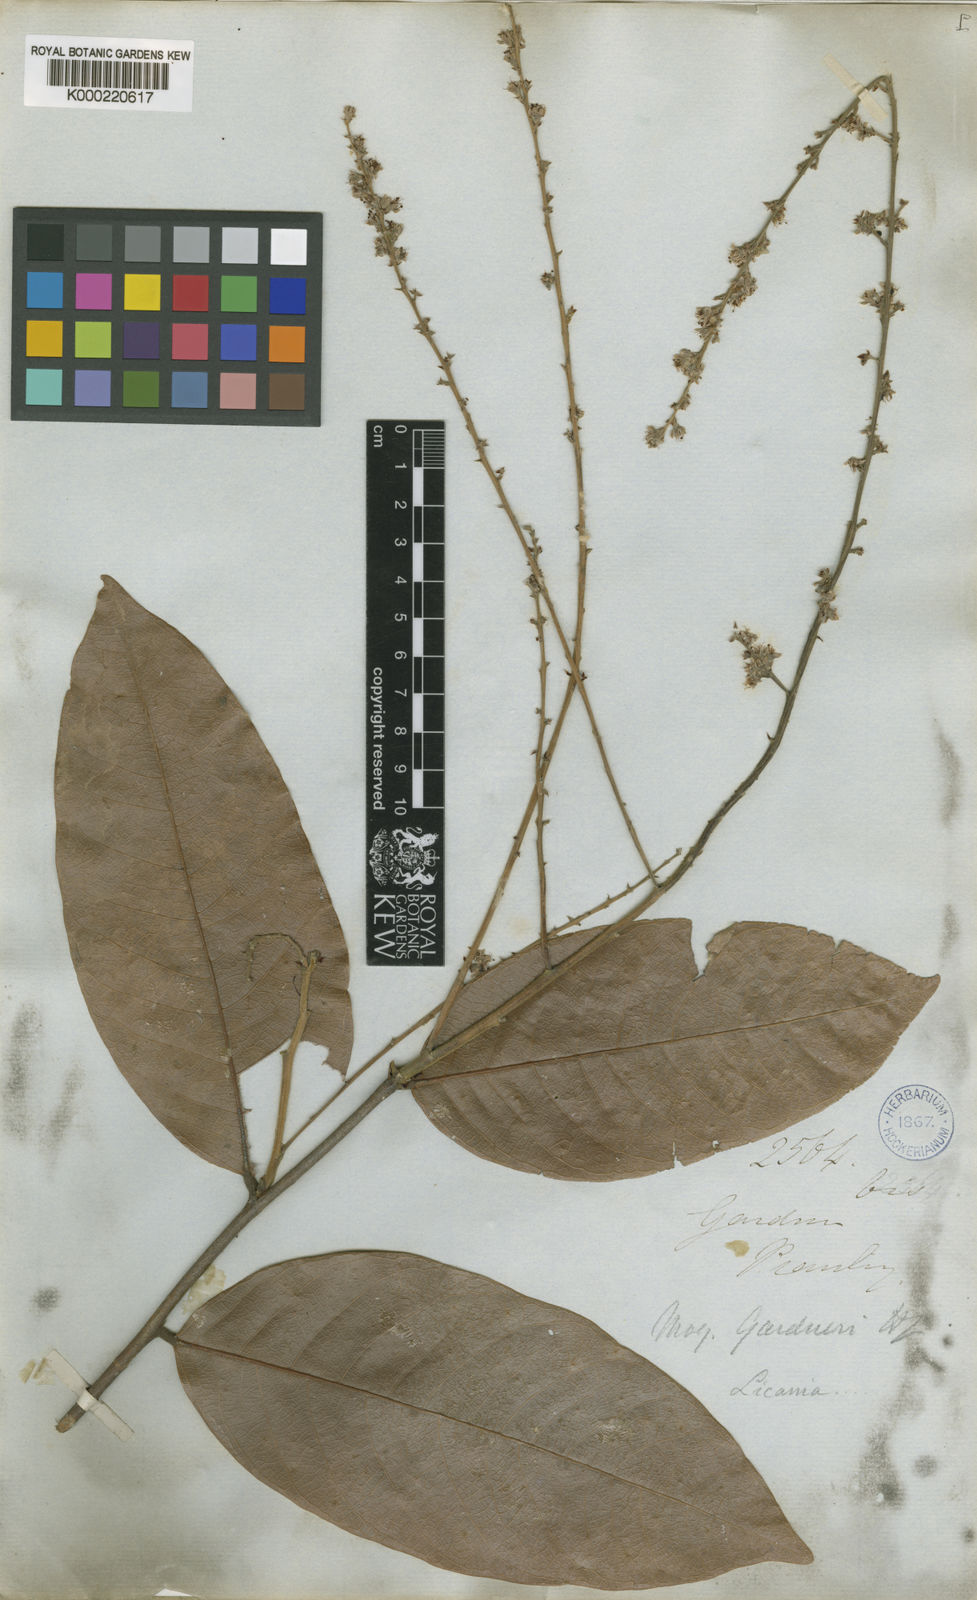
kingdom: Plantae
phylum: Tracheophyta
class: Magnoliopsida
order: Malpighiales
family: Chrysobalanaceae
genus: Leptobalanus
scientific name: Leptobalanus gardneri
